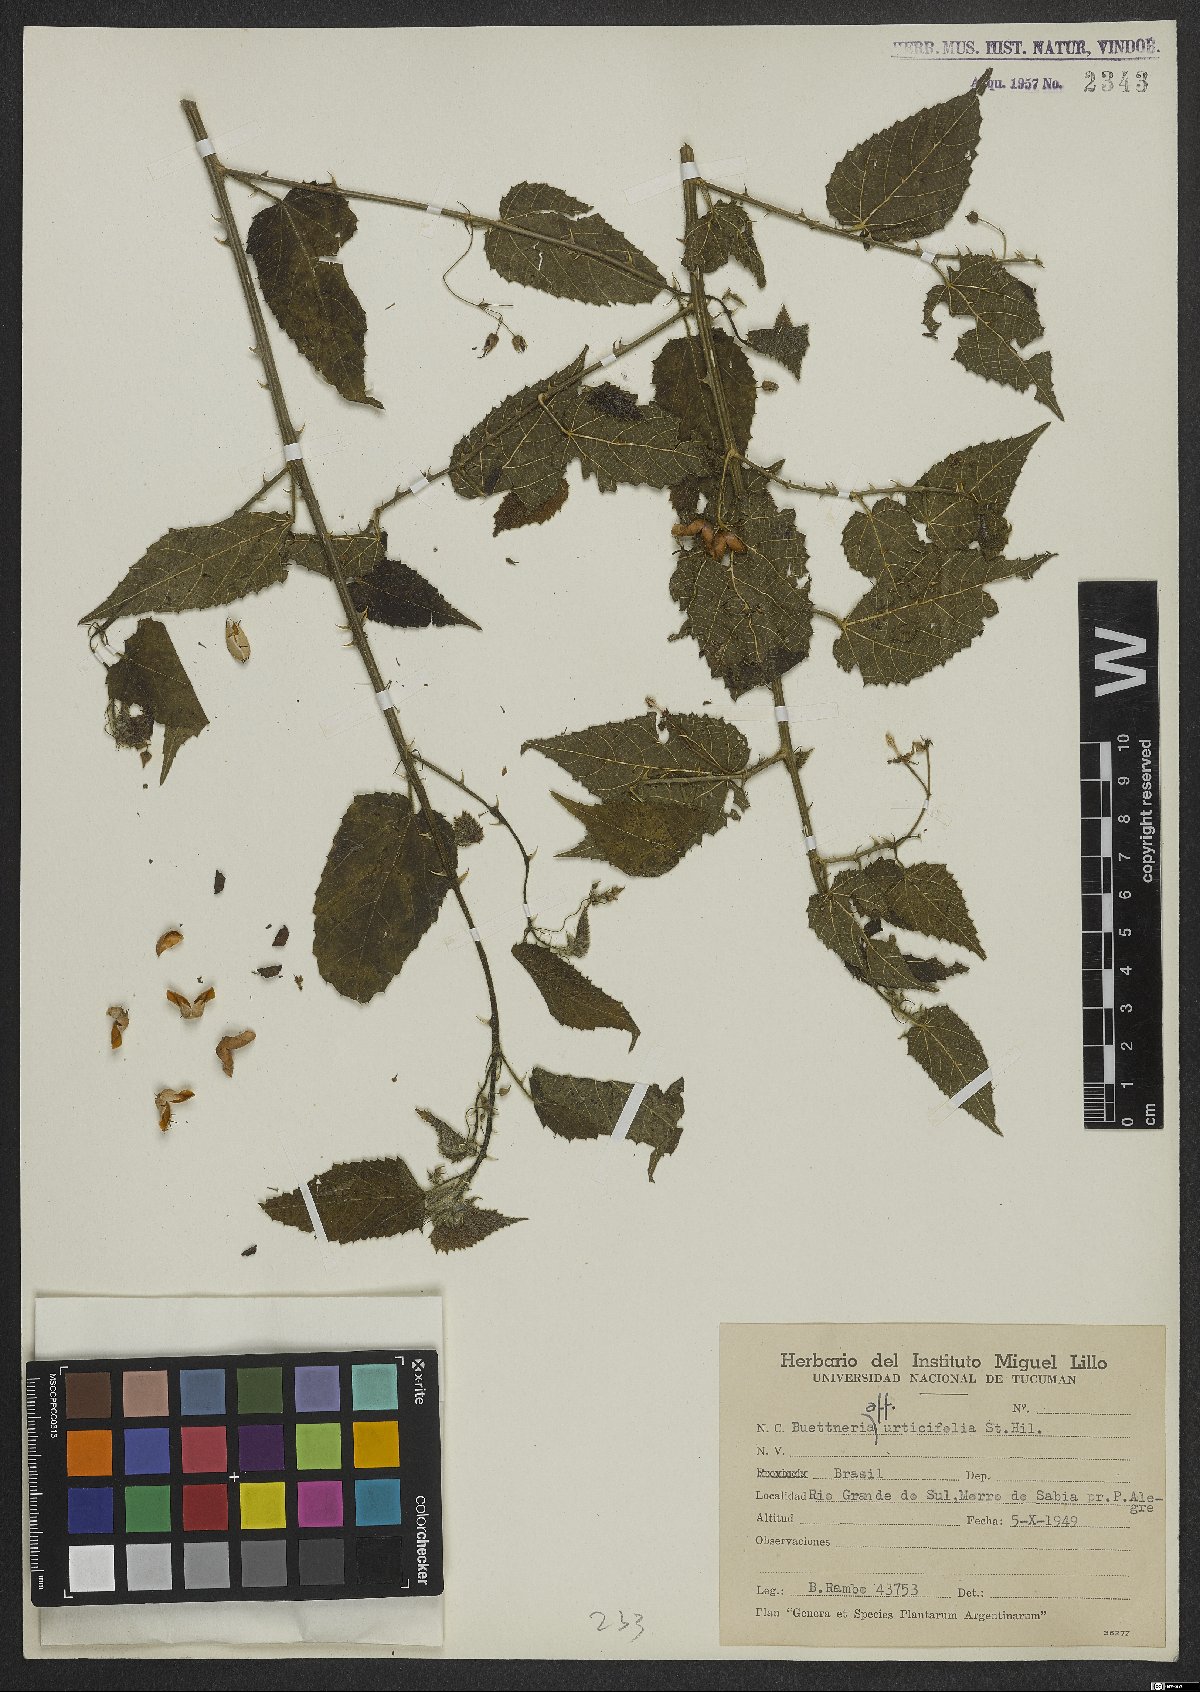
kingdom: Plantae
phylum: Tracheophyta
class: Magnoliopsida
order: Malvales
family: Malvaceae
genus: Byttneria
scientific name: Byttneria urticifolia
